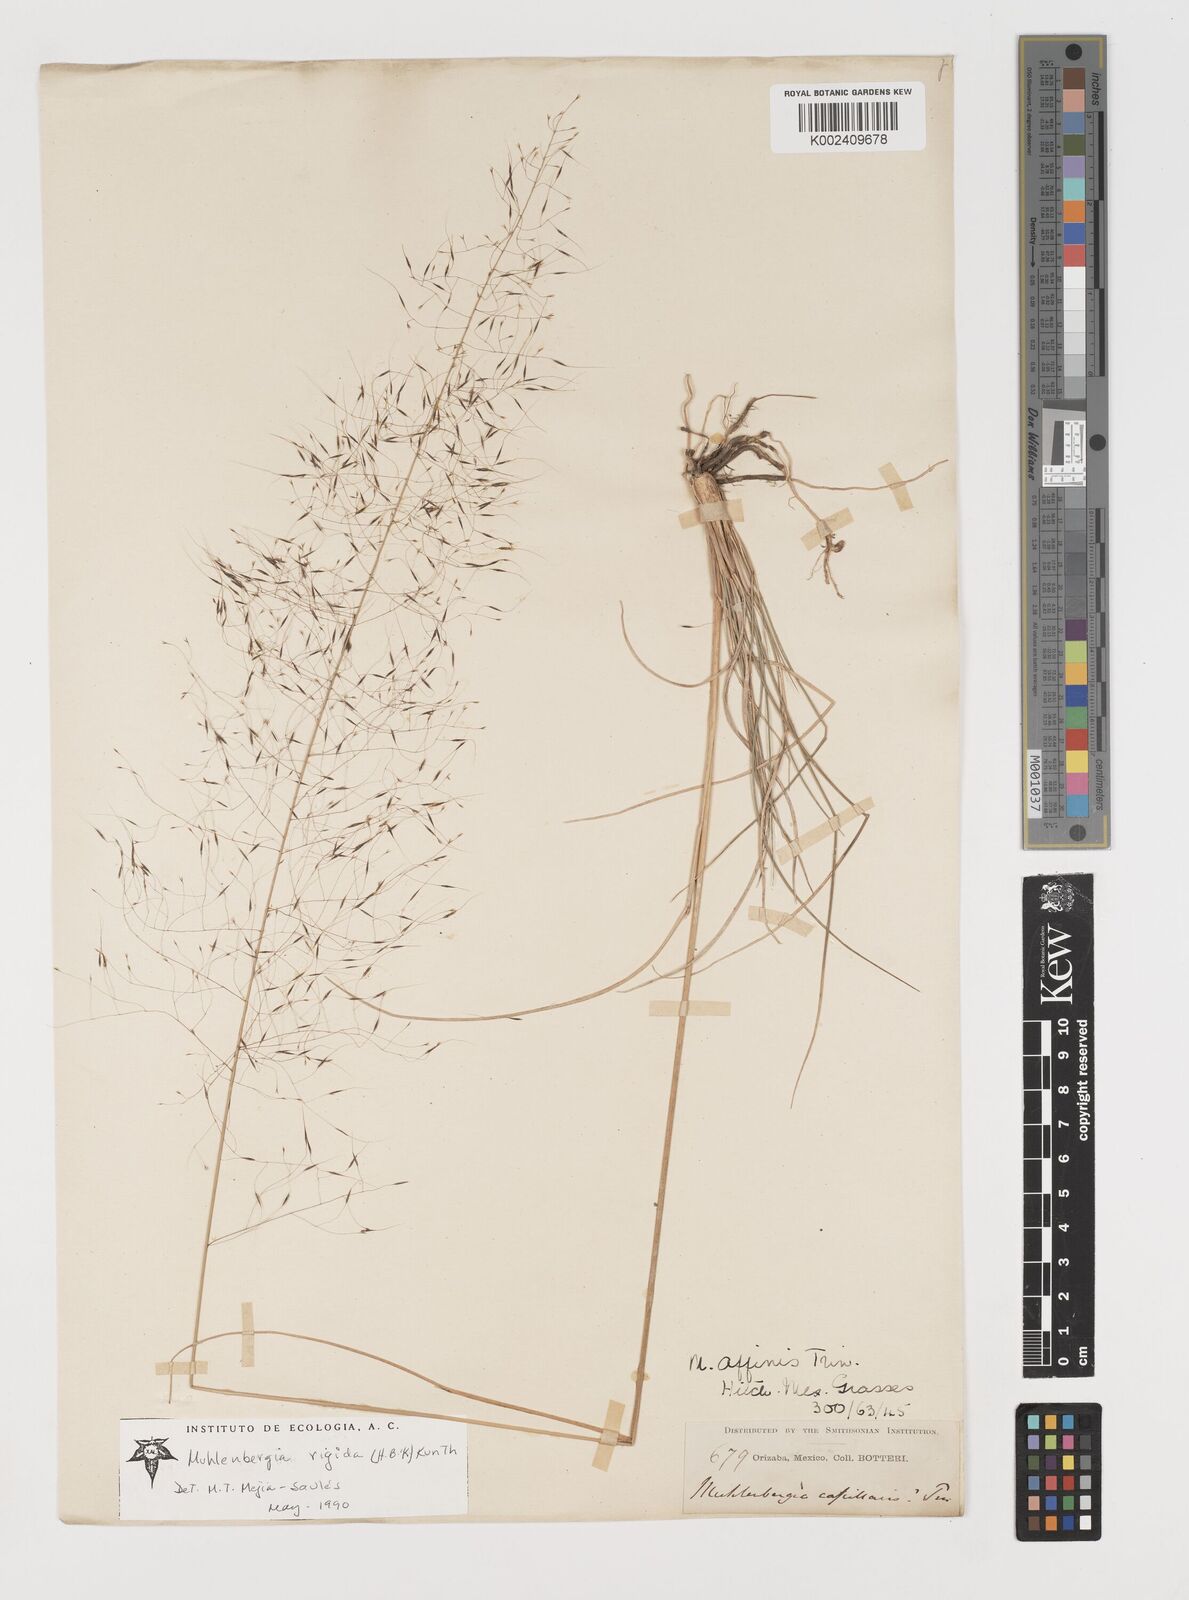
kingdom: Plantae
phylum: Tracheophyta
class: Liliopsida
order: Poales
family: Poaceae
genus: Muhlenbergia
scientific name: Muhlenbergia rigida
